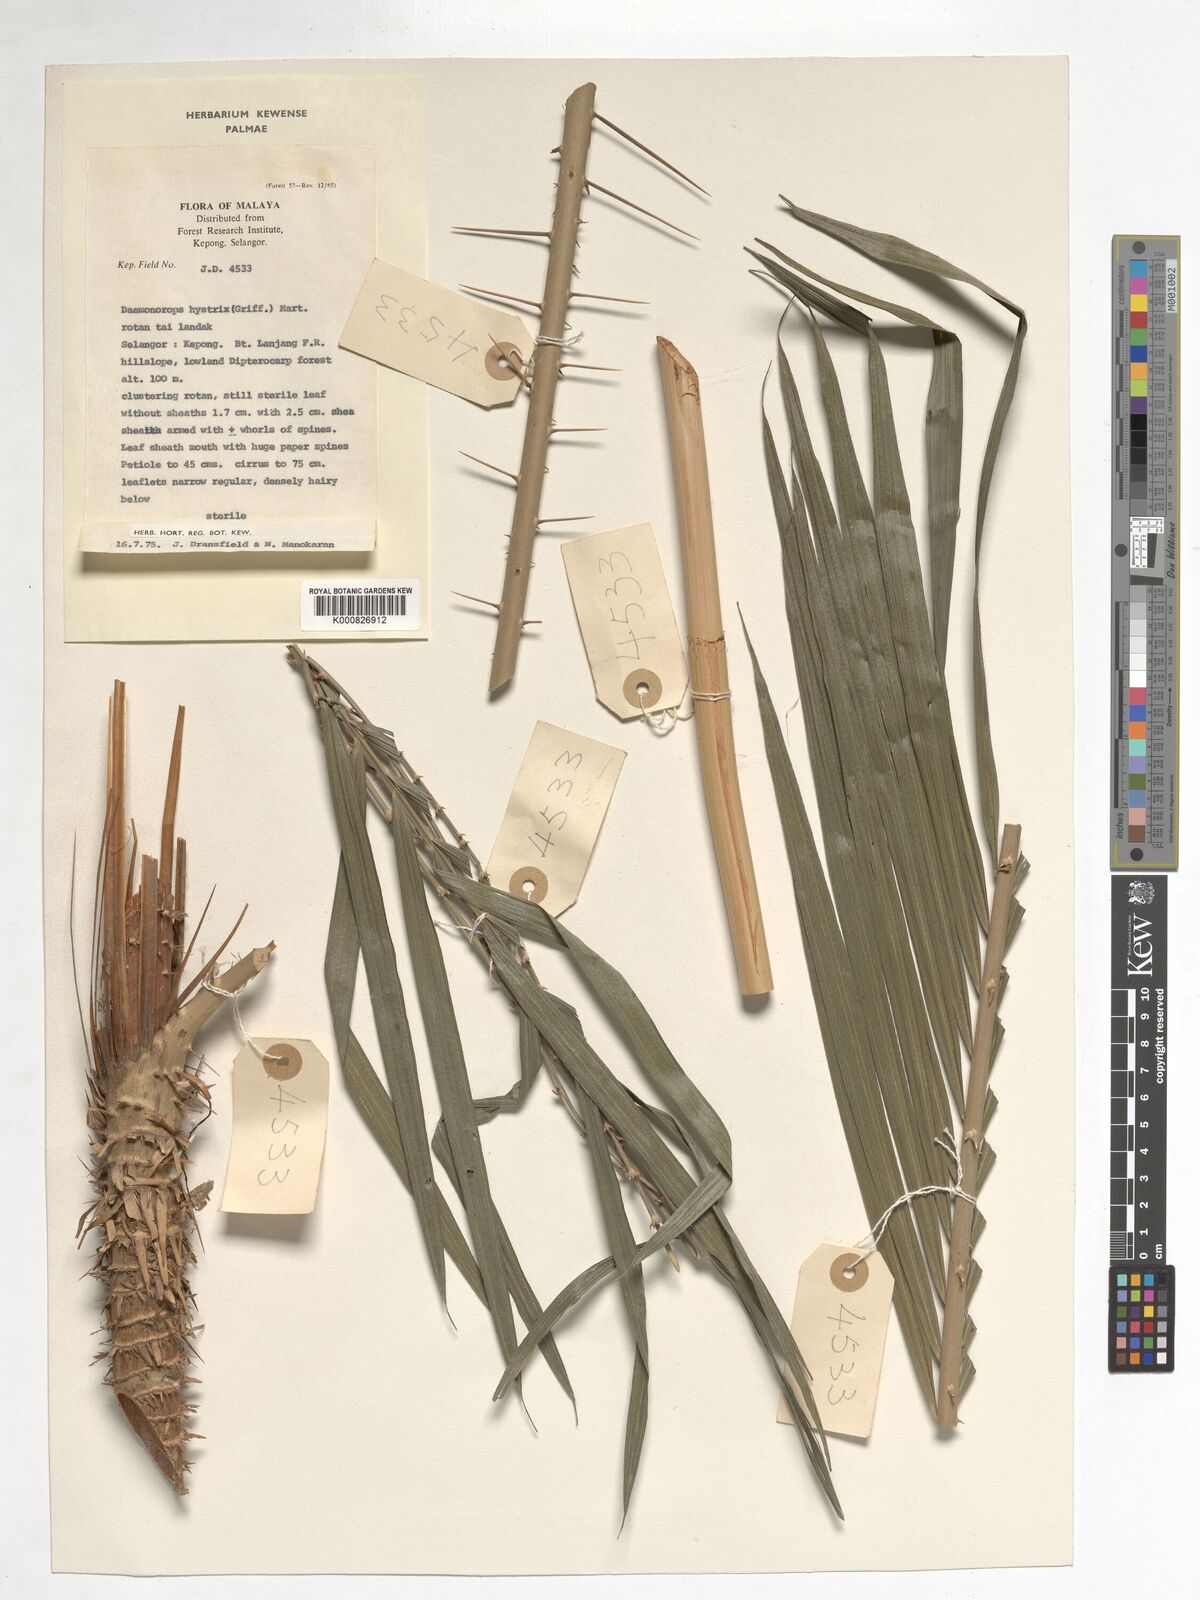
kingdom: Plantae
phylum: Tracheophyta
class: Liliopsida
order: Arecales
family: Arecaceae
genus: Calamus
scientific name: Calamus hirsutus
